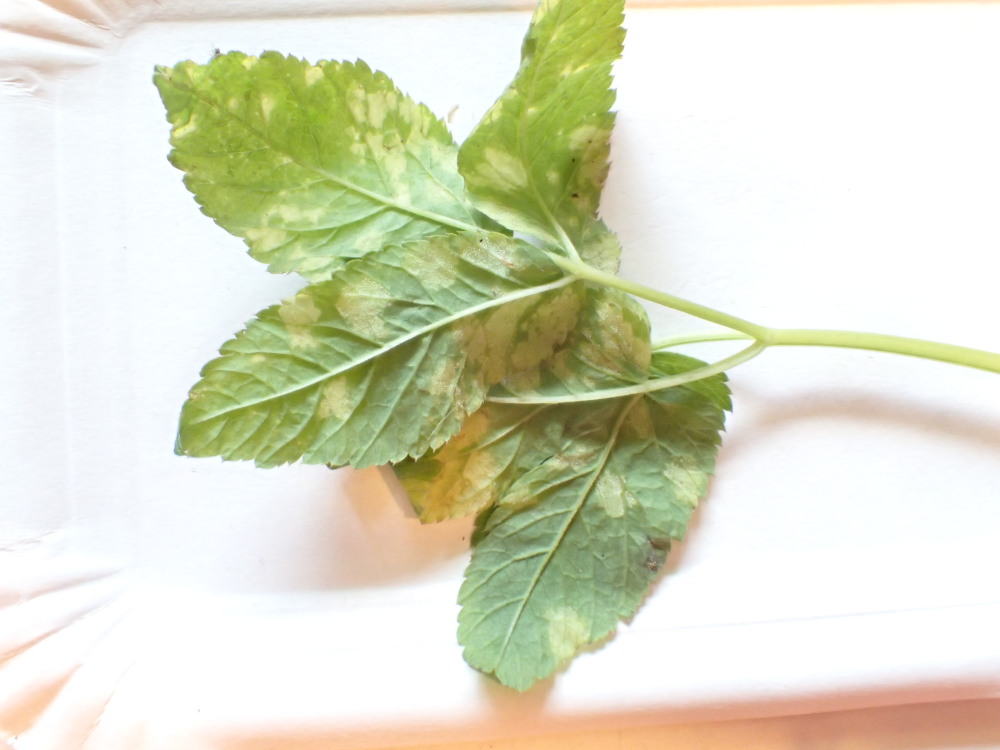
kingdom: Chromista
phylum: Oomycota
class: Peronosporea
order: Peronosporales
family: Peronosporaceae
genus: Peronospora
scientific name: Peronospora crustosa
